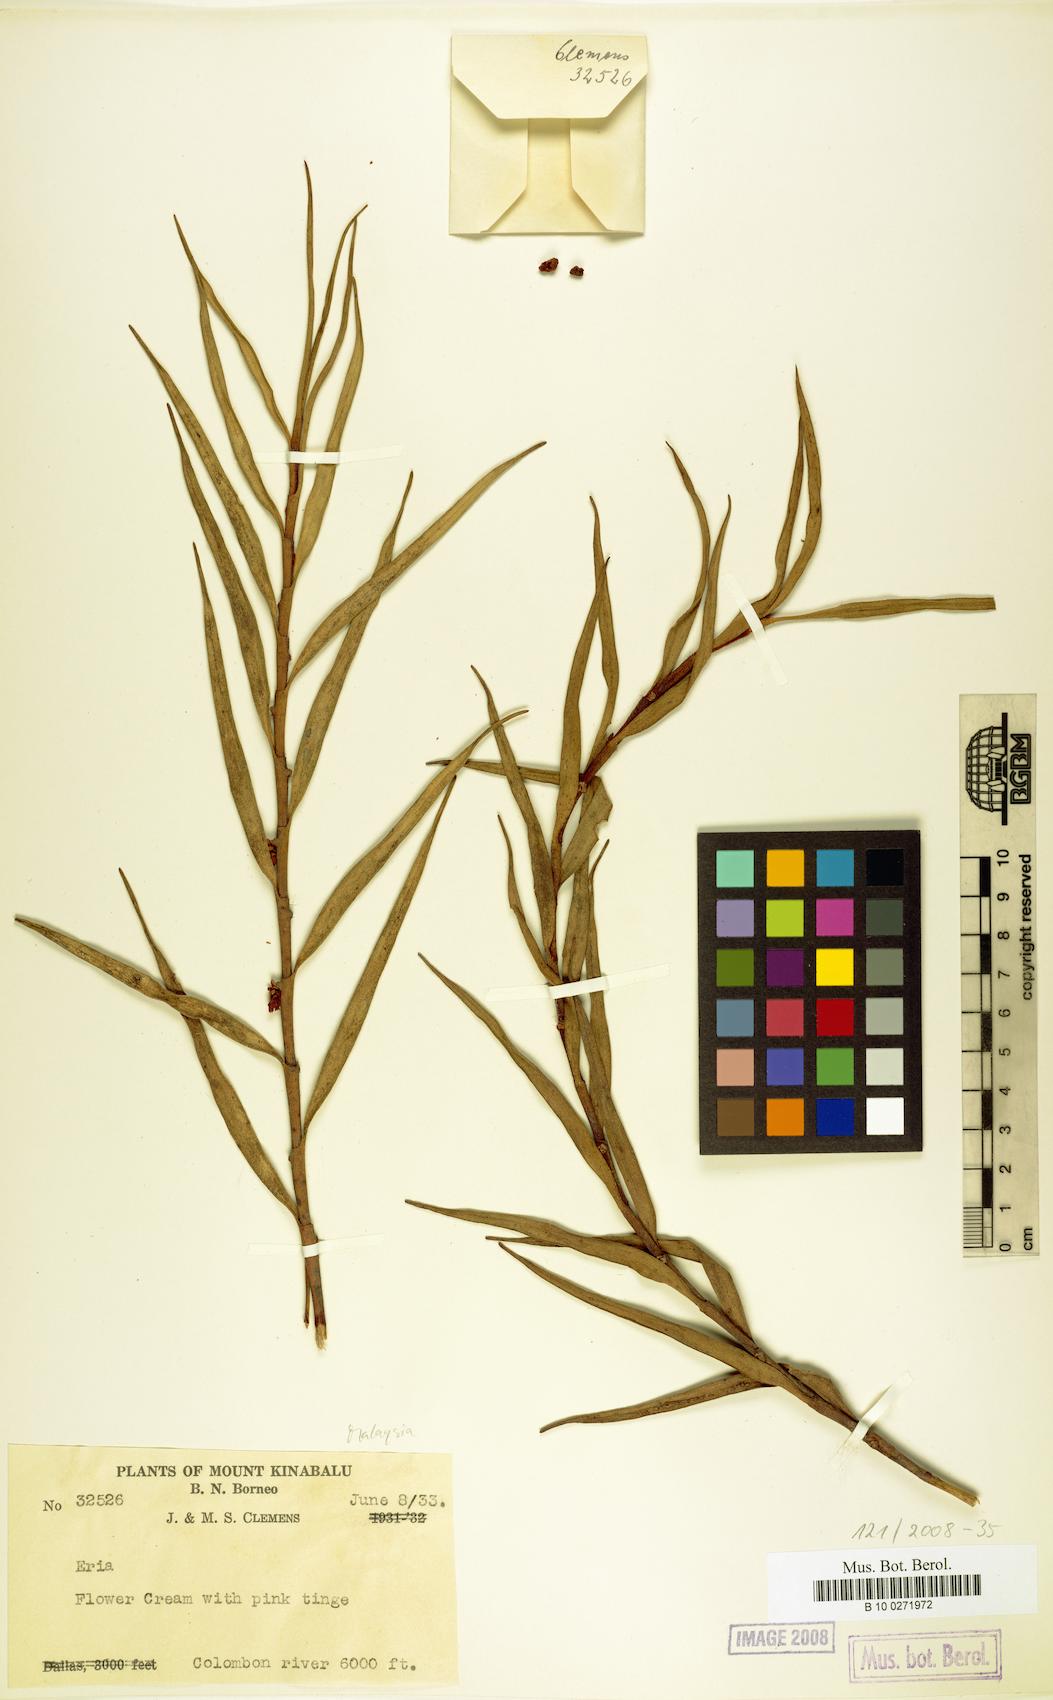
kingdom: Plantae
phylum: Tracheophyta
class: Liliopsida
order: Asparagales
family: Orchidaceae
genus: Eria
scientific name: Eria
